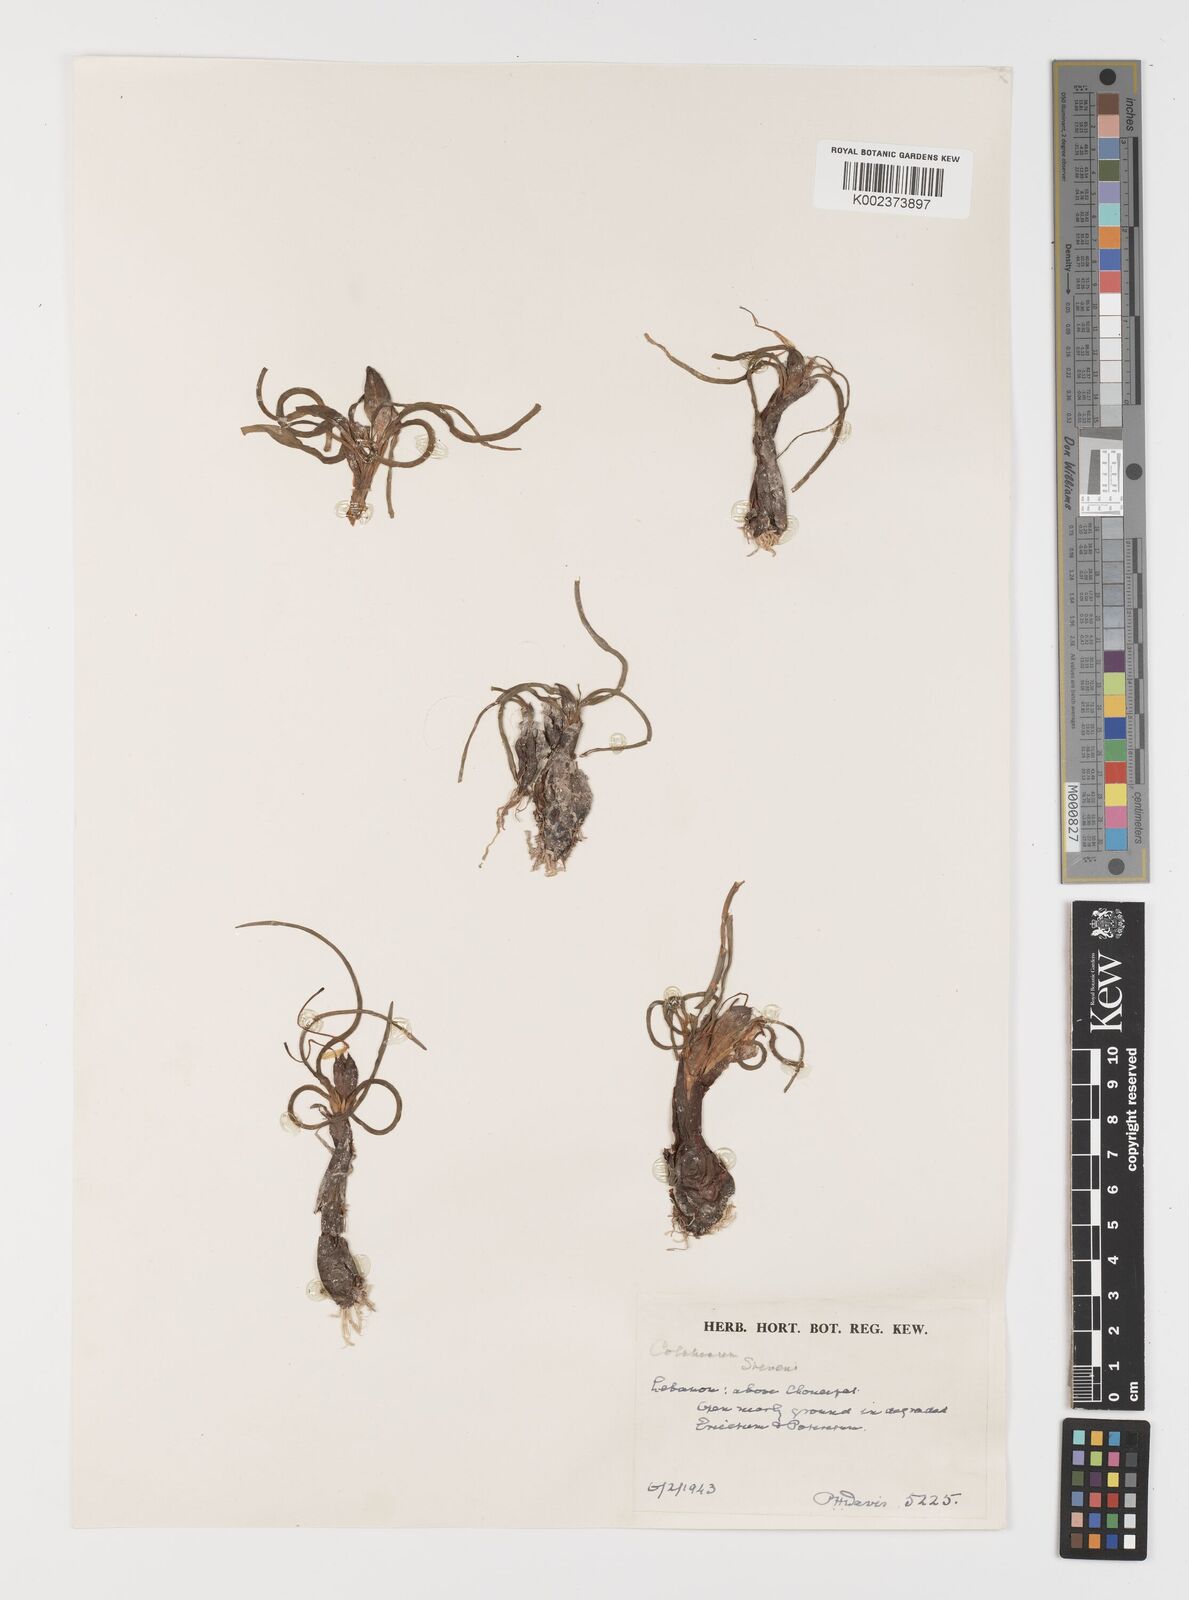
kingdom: Plantae
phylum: Tracheophyta
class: Liliopsida
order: Liliales
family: Colchicaceae
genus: Colchicum
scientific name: Colchicum stevenii
